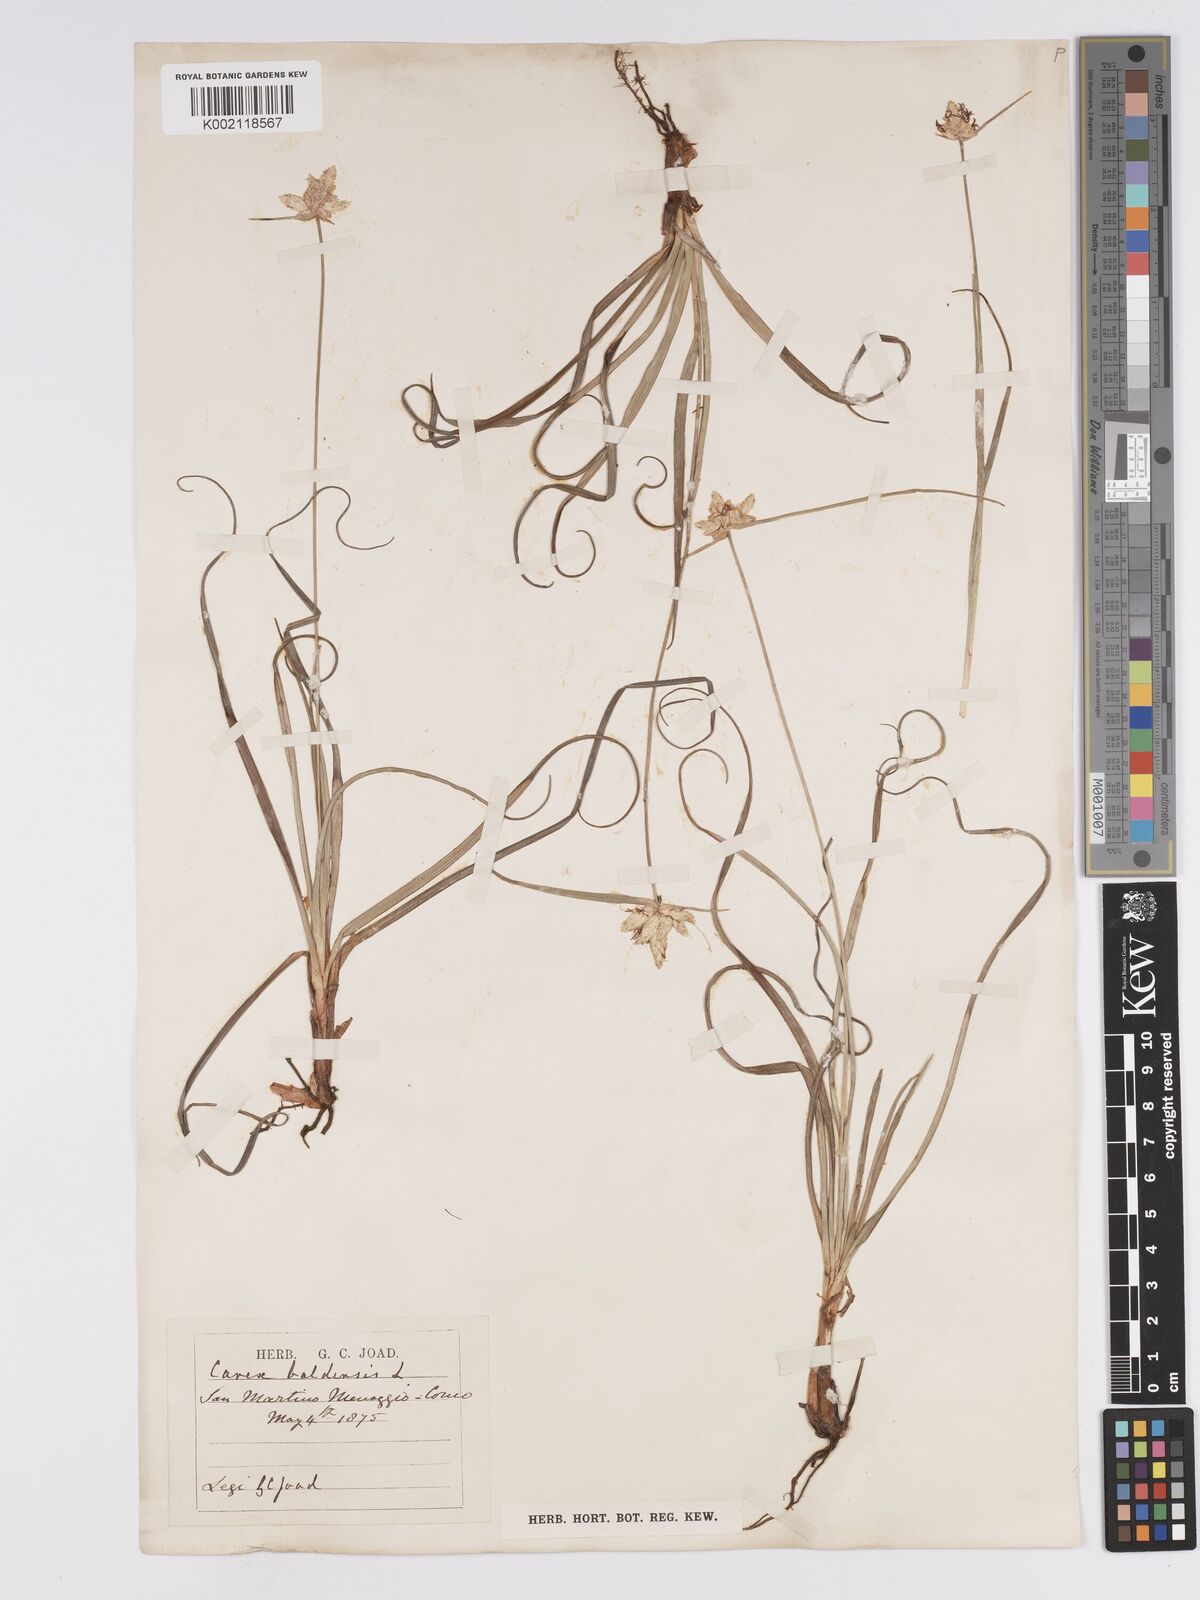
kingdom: Plantae
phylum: Tracheophyta
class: Liliopsida
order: Poales
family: Cyperaceae
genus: Carex
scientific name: Carex baldensis
